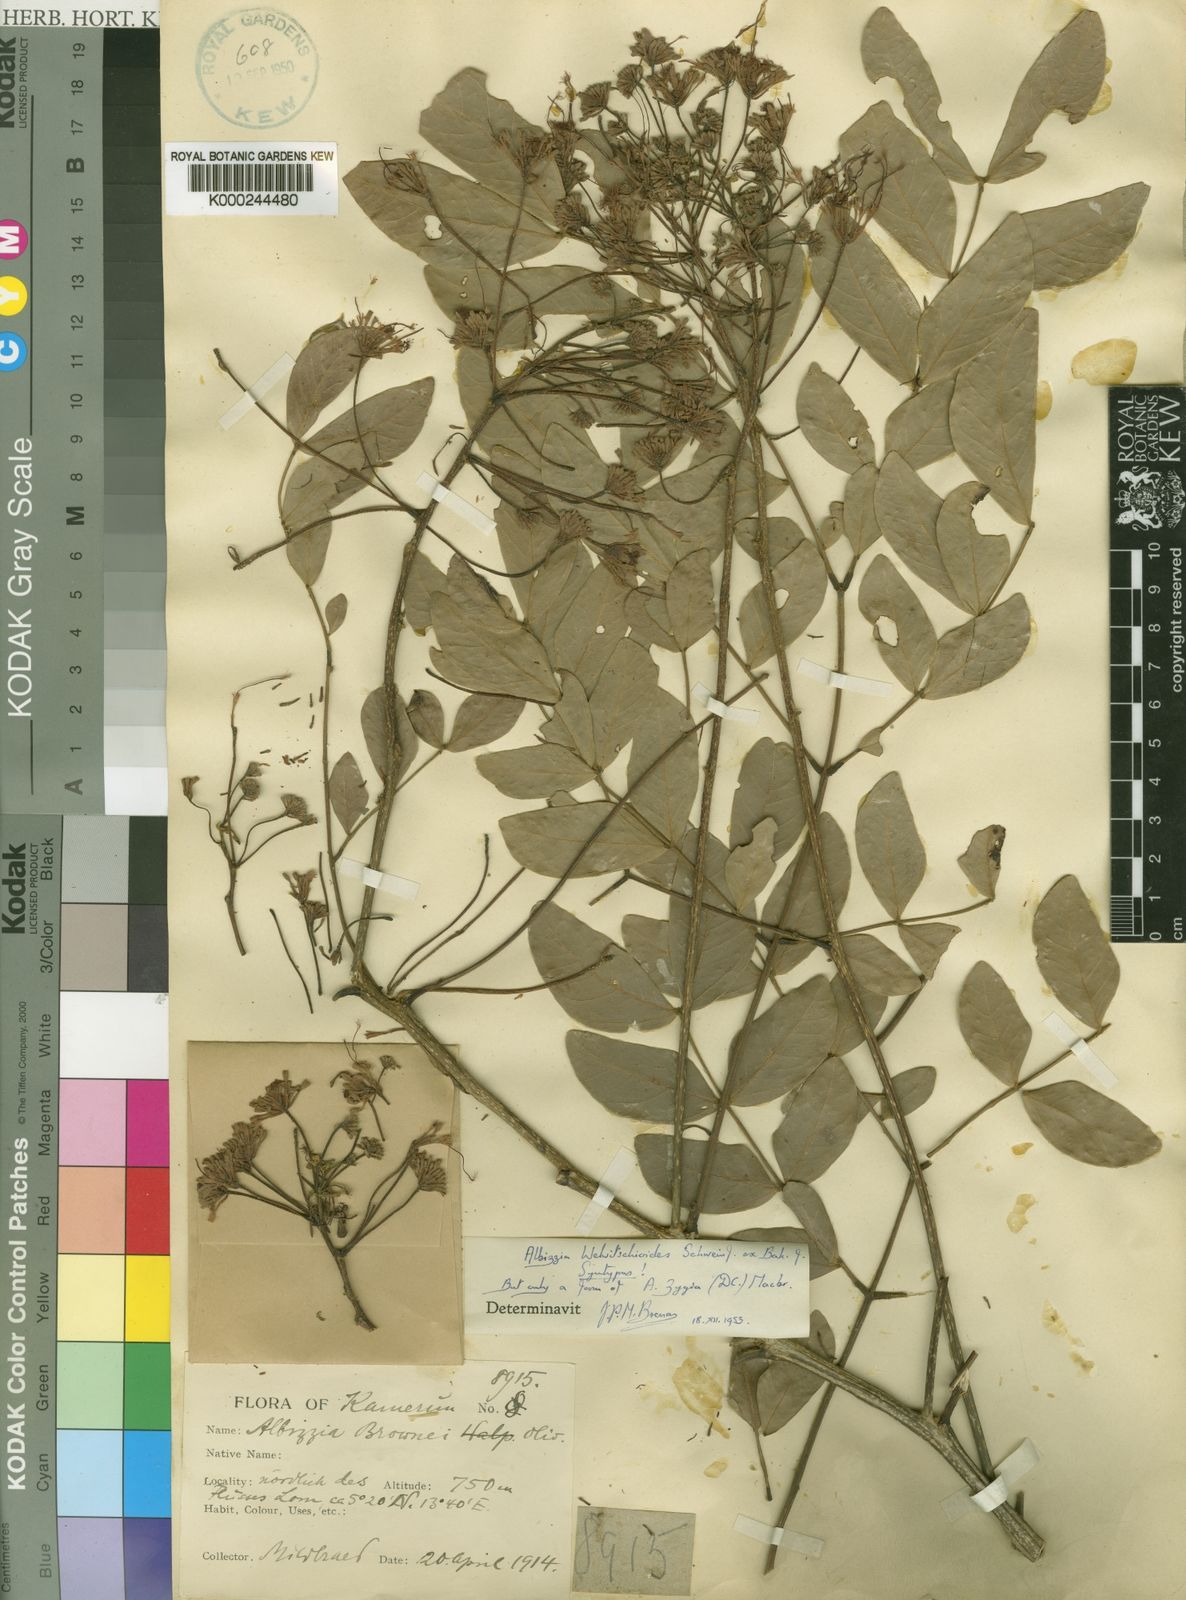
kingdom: Plantae
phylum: Tracheophyta
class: Magnoliopsida
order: Fabales
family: Fabaceae
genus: Albizia
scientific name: Albizia zygia
